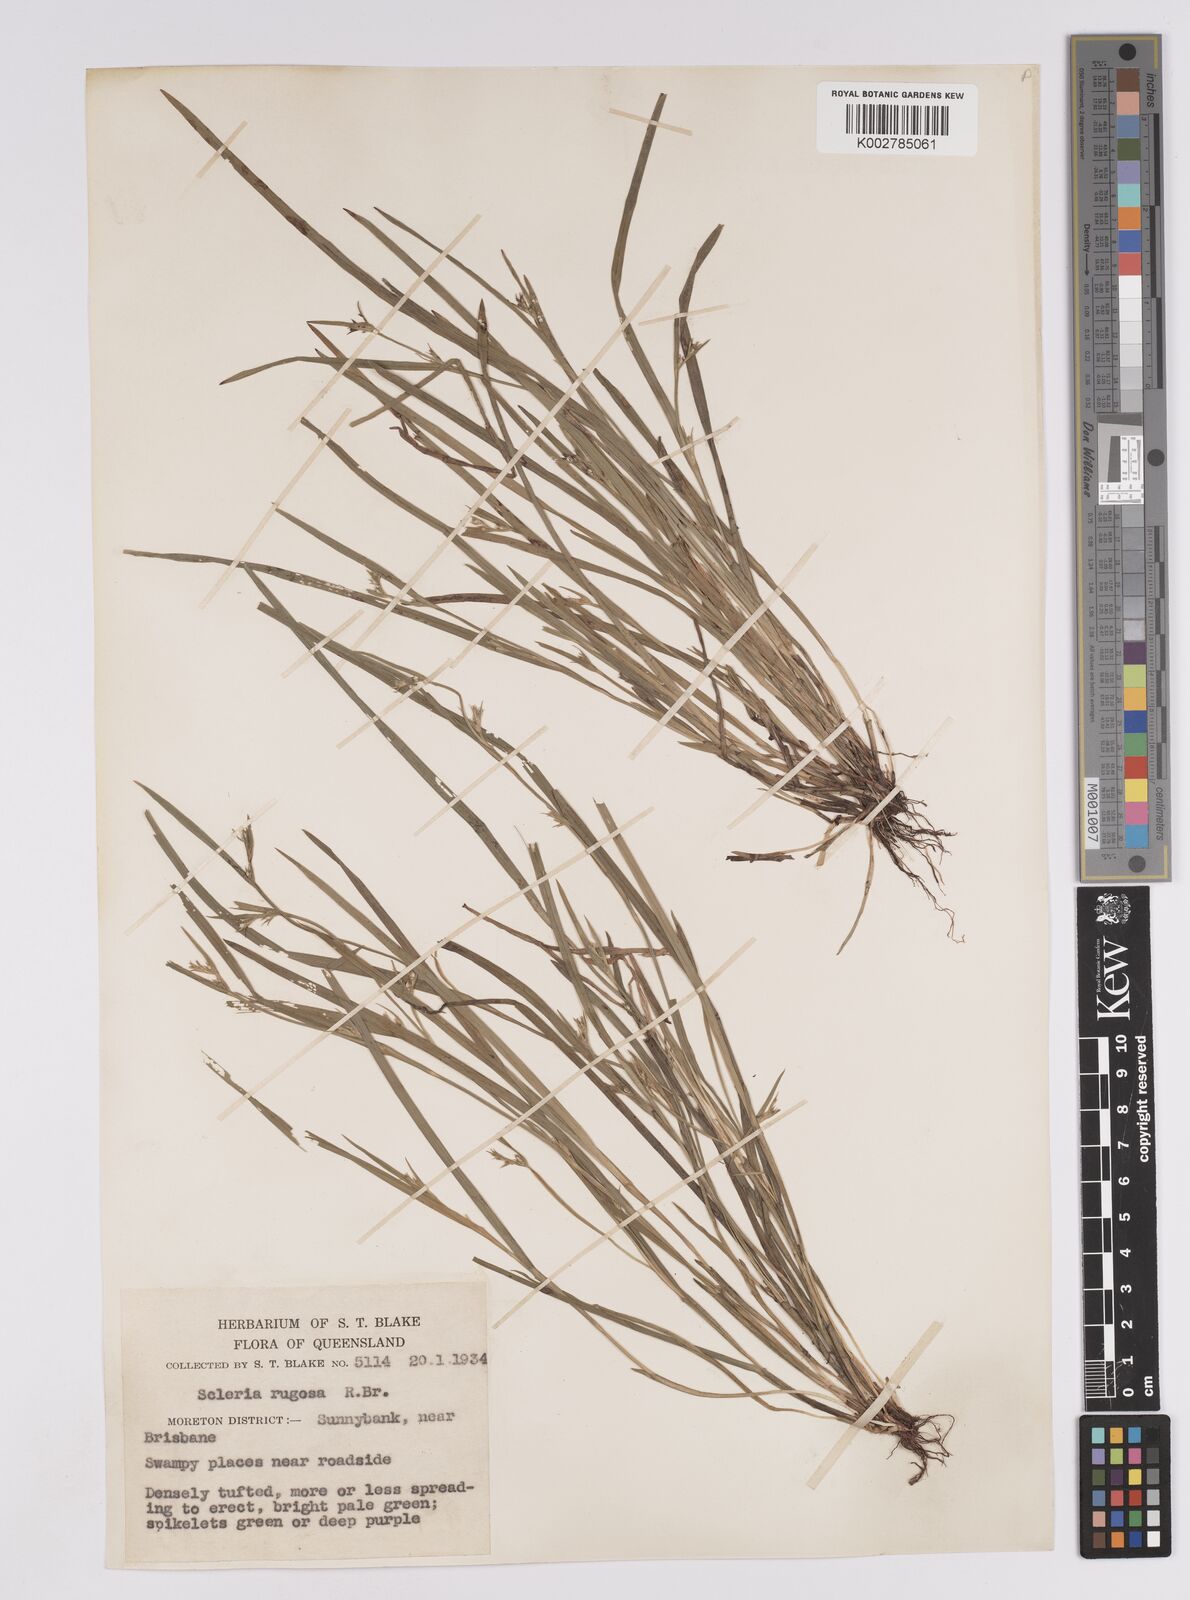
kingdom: Plantae
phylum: Tracheophyta
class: Liliopsida
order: Poales
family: Cyperaceae
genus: Scleria
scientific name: Scleria rugosa
